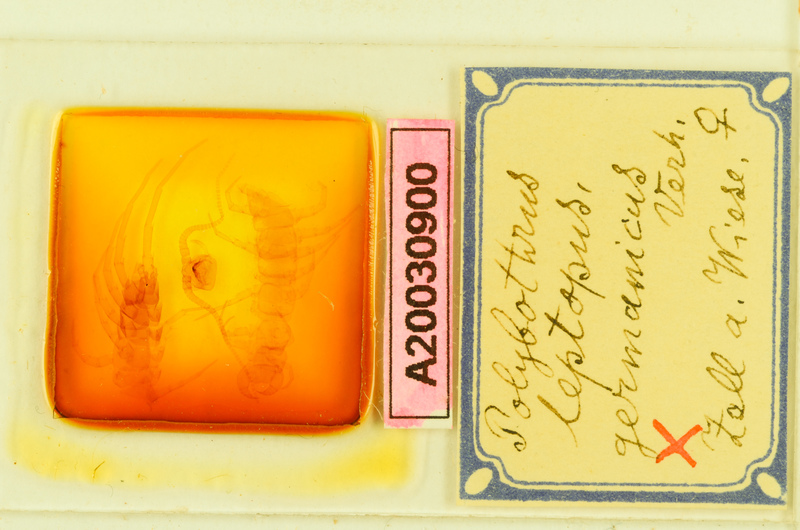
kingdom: Animalia
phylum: Arthropoda
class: Chilopoda
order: Lithobiomorpha
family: Lithobiidae
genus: Polybothrus
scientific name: Polybothrus leptopus
